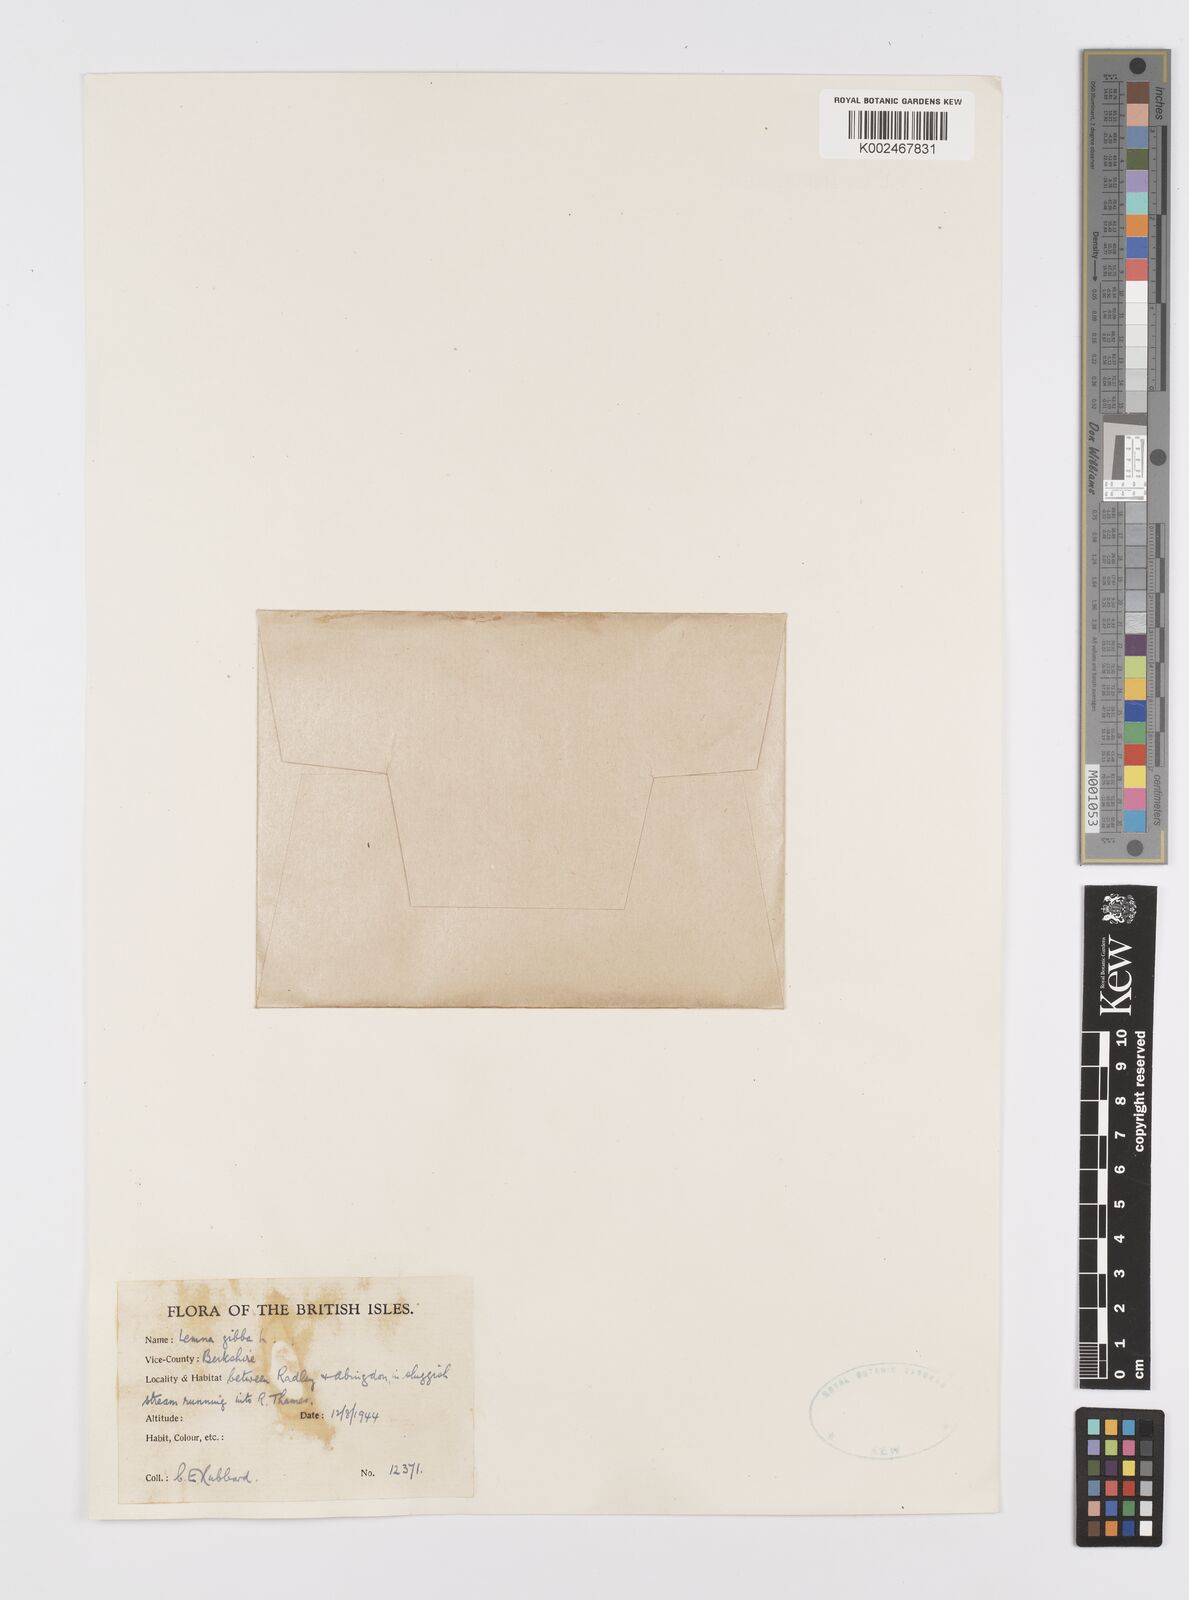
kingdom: Plantae
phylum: Tracheophyta
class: Liliopsida
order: Alismatales
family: Araceae
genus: Lemna
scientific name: Lemna gibba
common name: Fat duckweed
